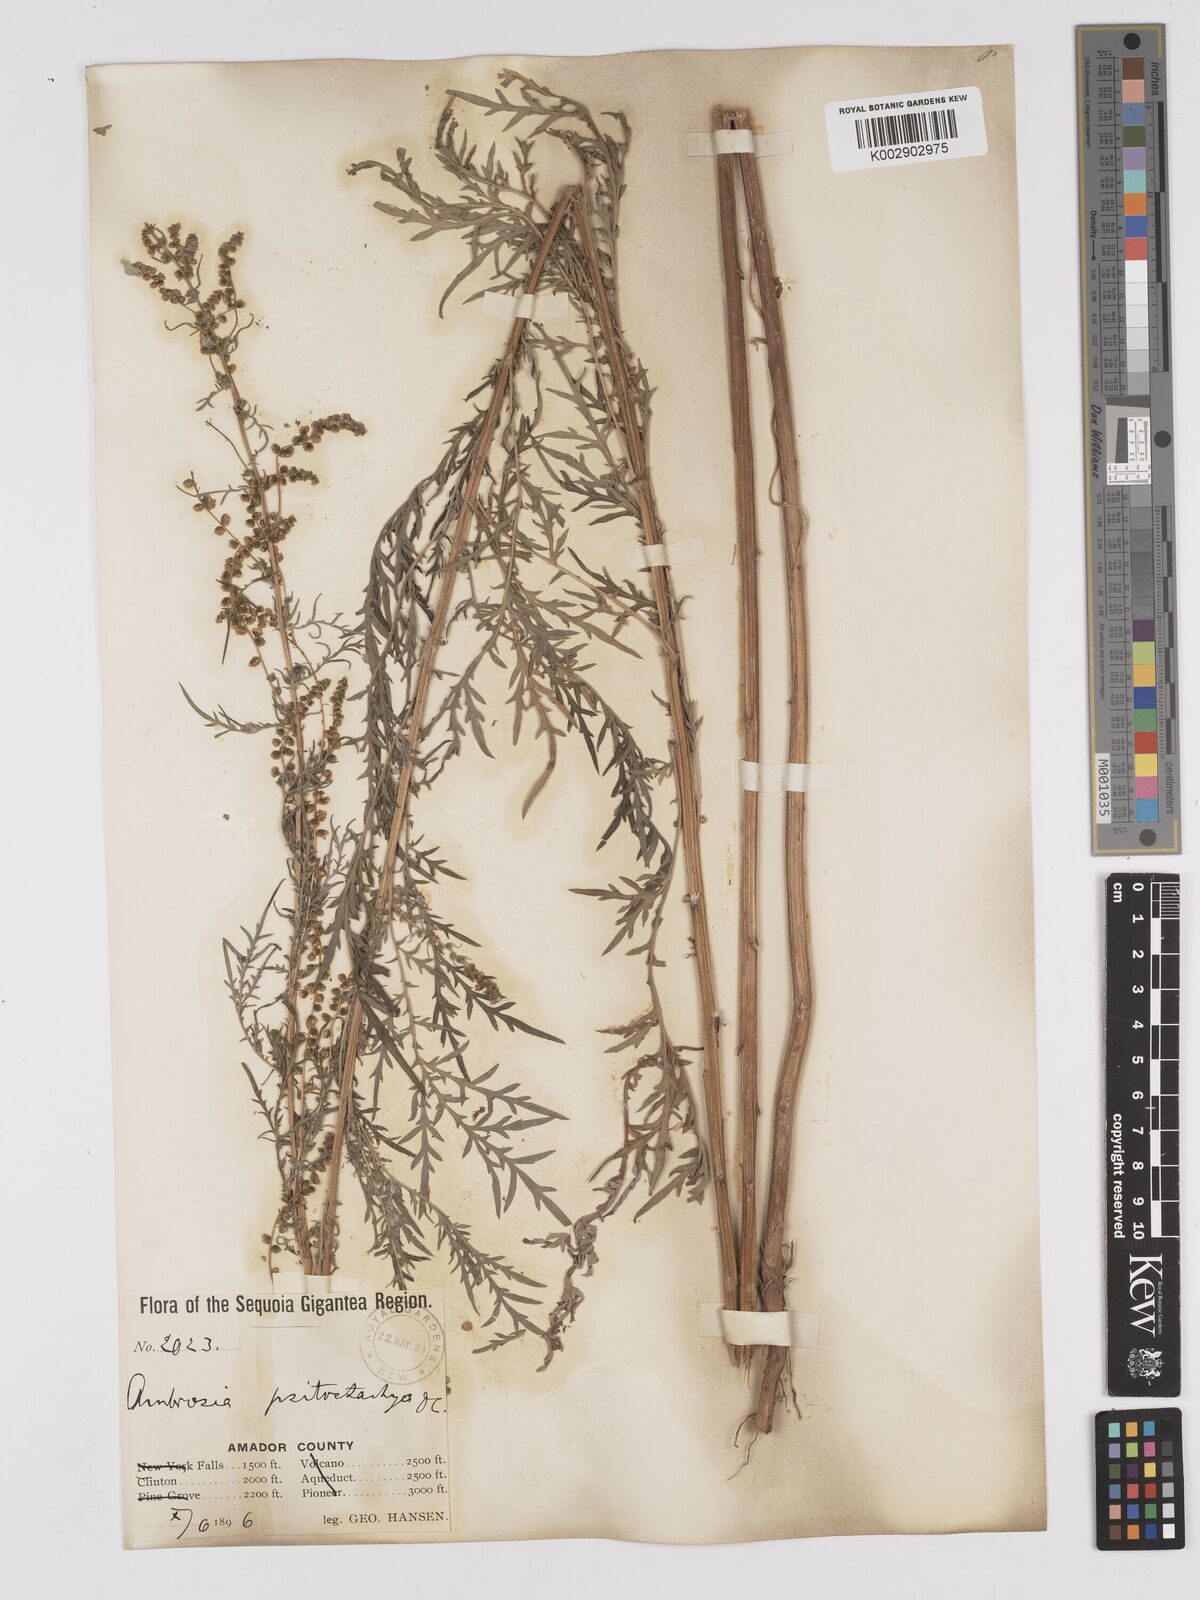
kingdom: Plantae
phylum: Tracheophyta
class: Magnoliopsida
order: Asterales
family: Asteraceae
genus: Ambrosia
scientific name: Ambrosia psilostachya
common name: Perennial ragweed
